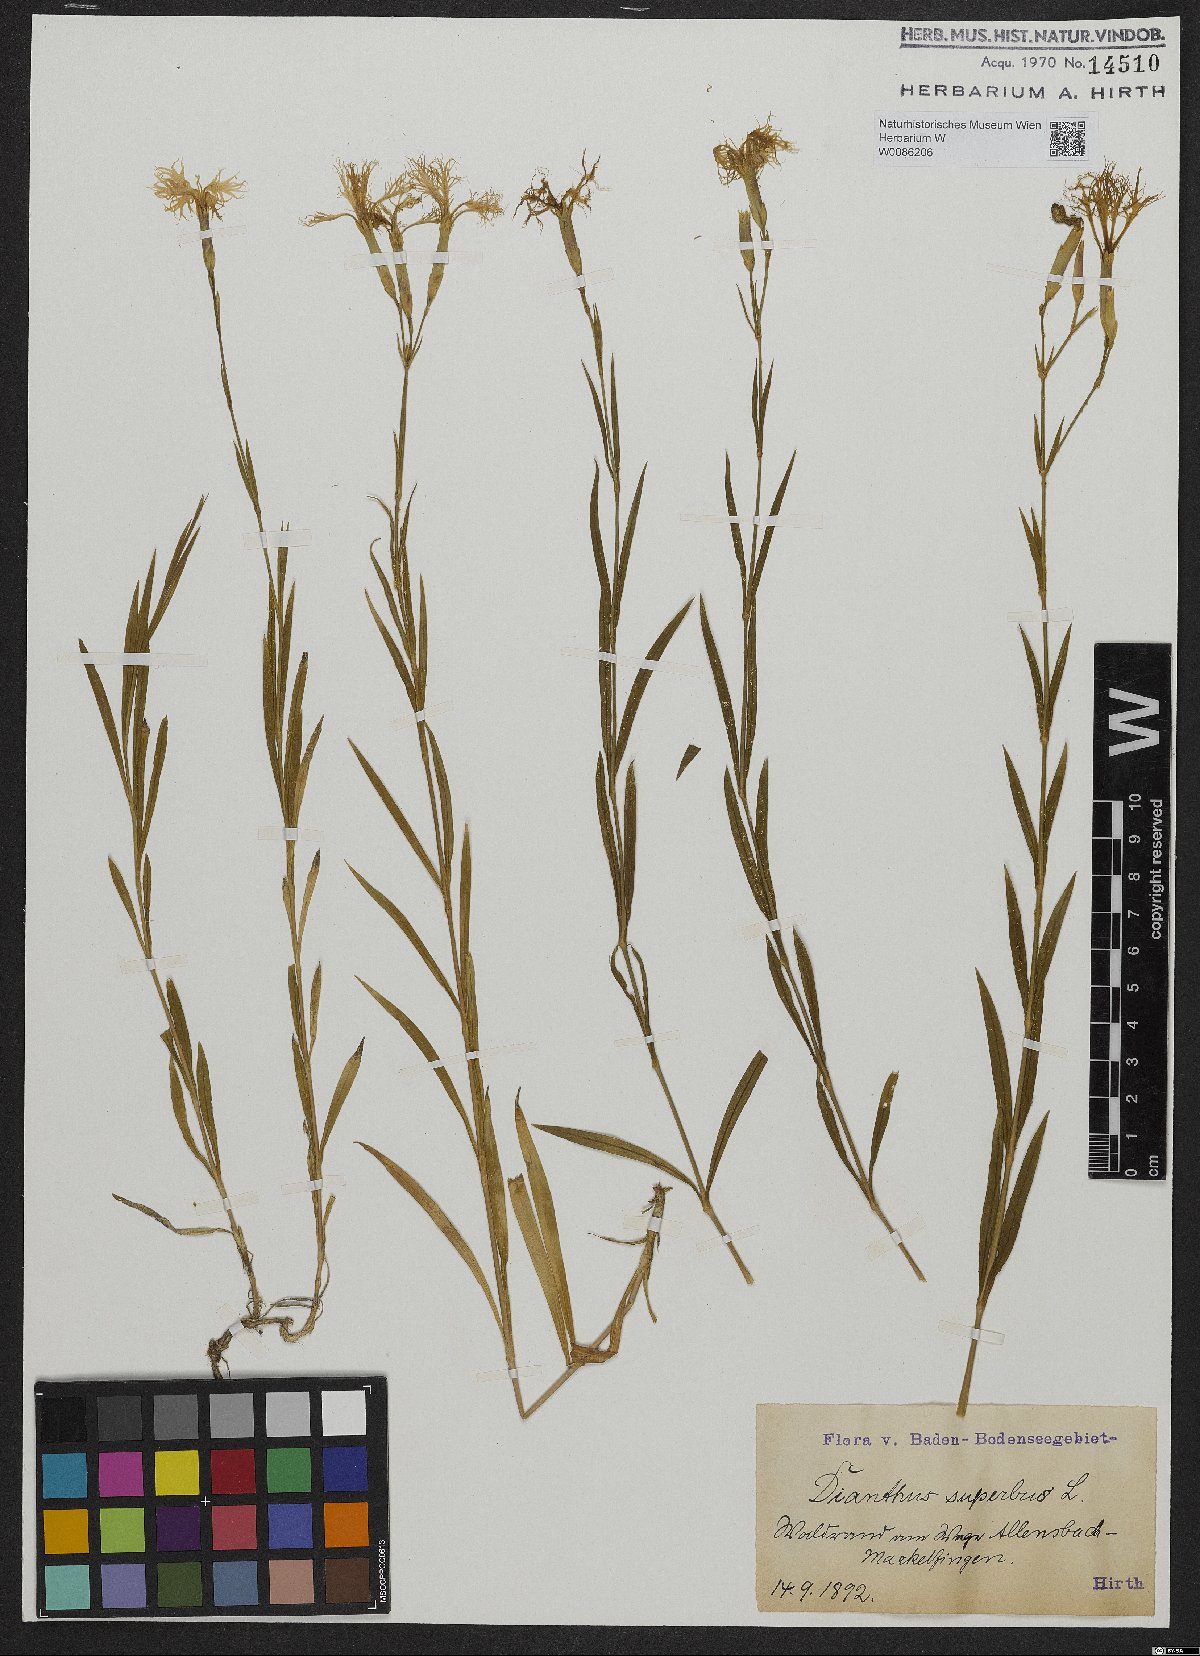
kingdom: Plantae
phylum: Tracheophyta
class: Magnoliopsida
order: Caryophyllales
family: Caryophyllaceae
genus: Dianthus
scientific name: Dianthus superbus
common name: Fringed pink
